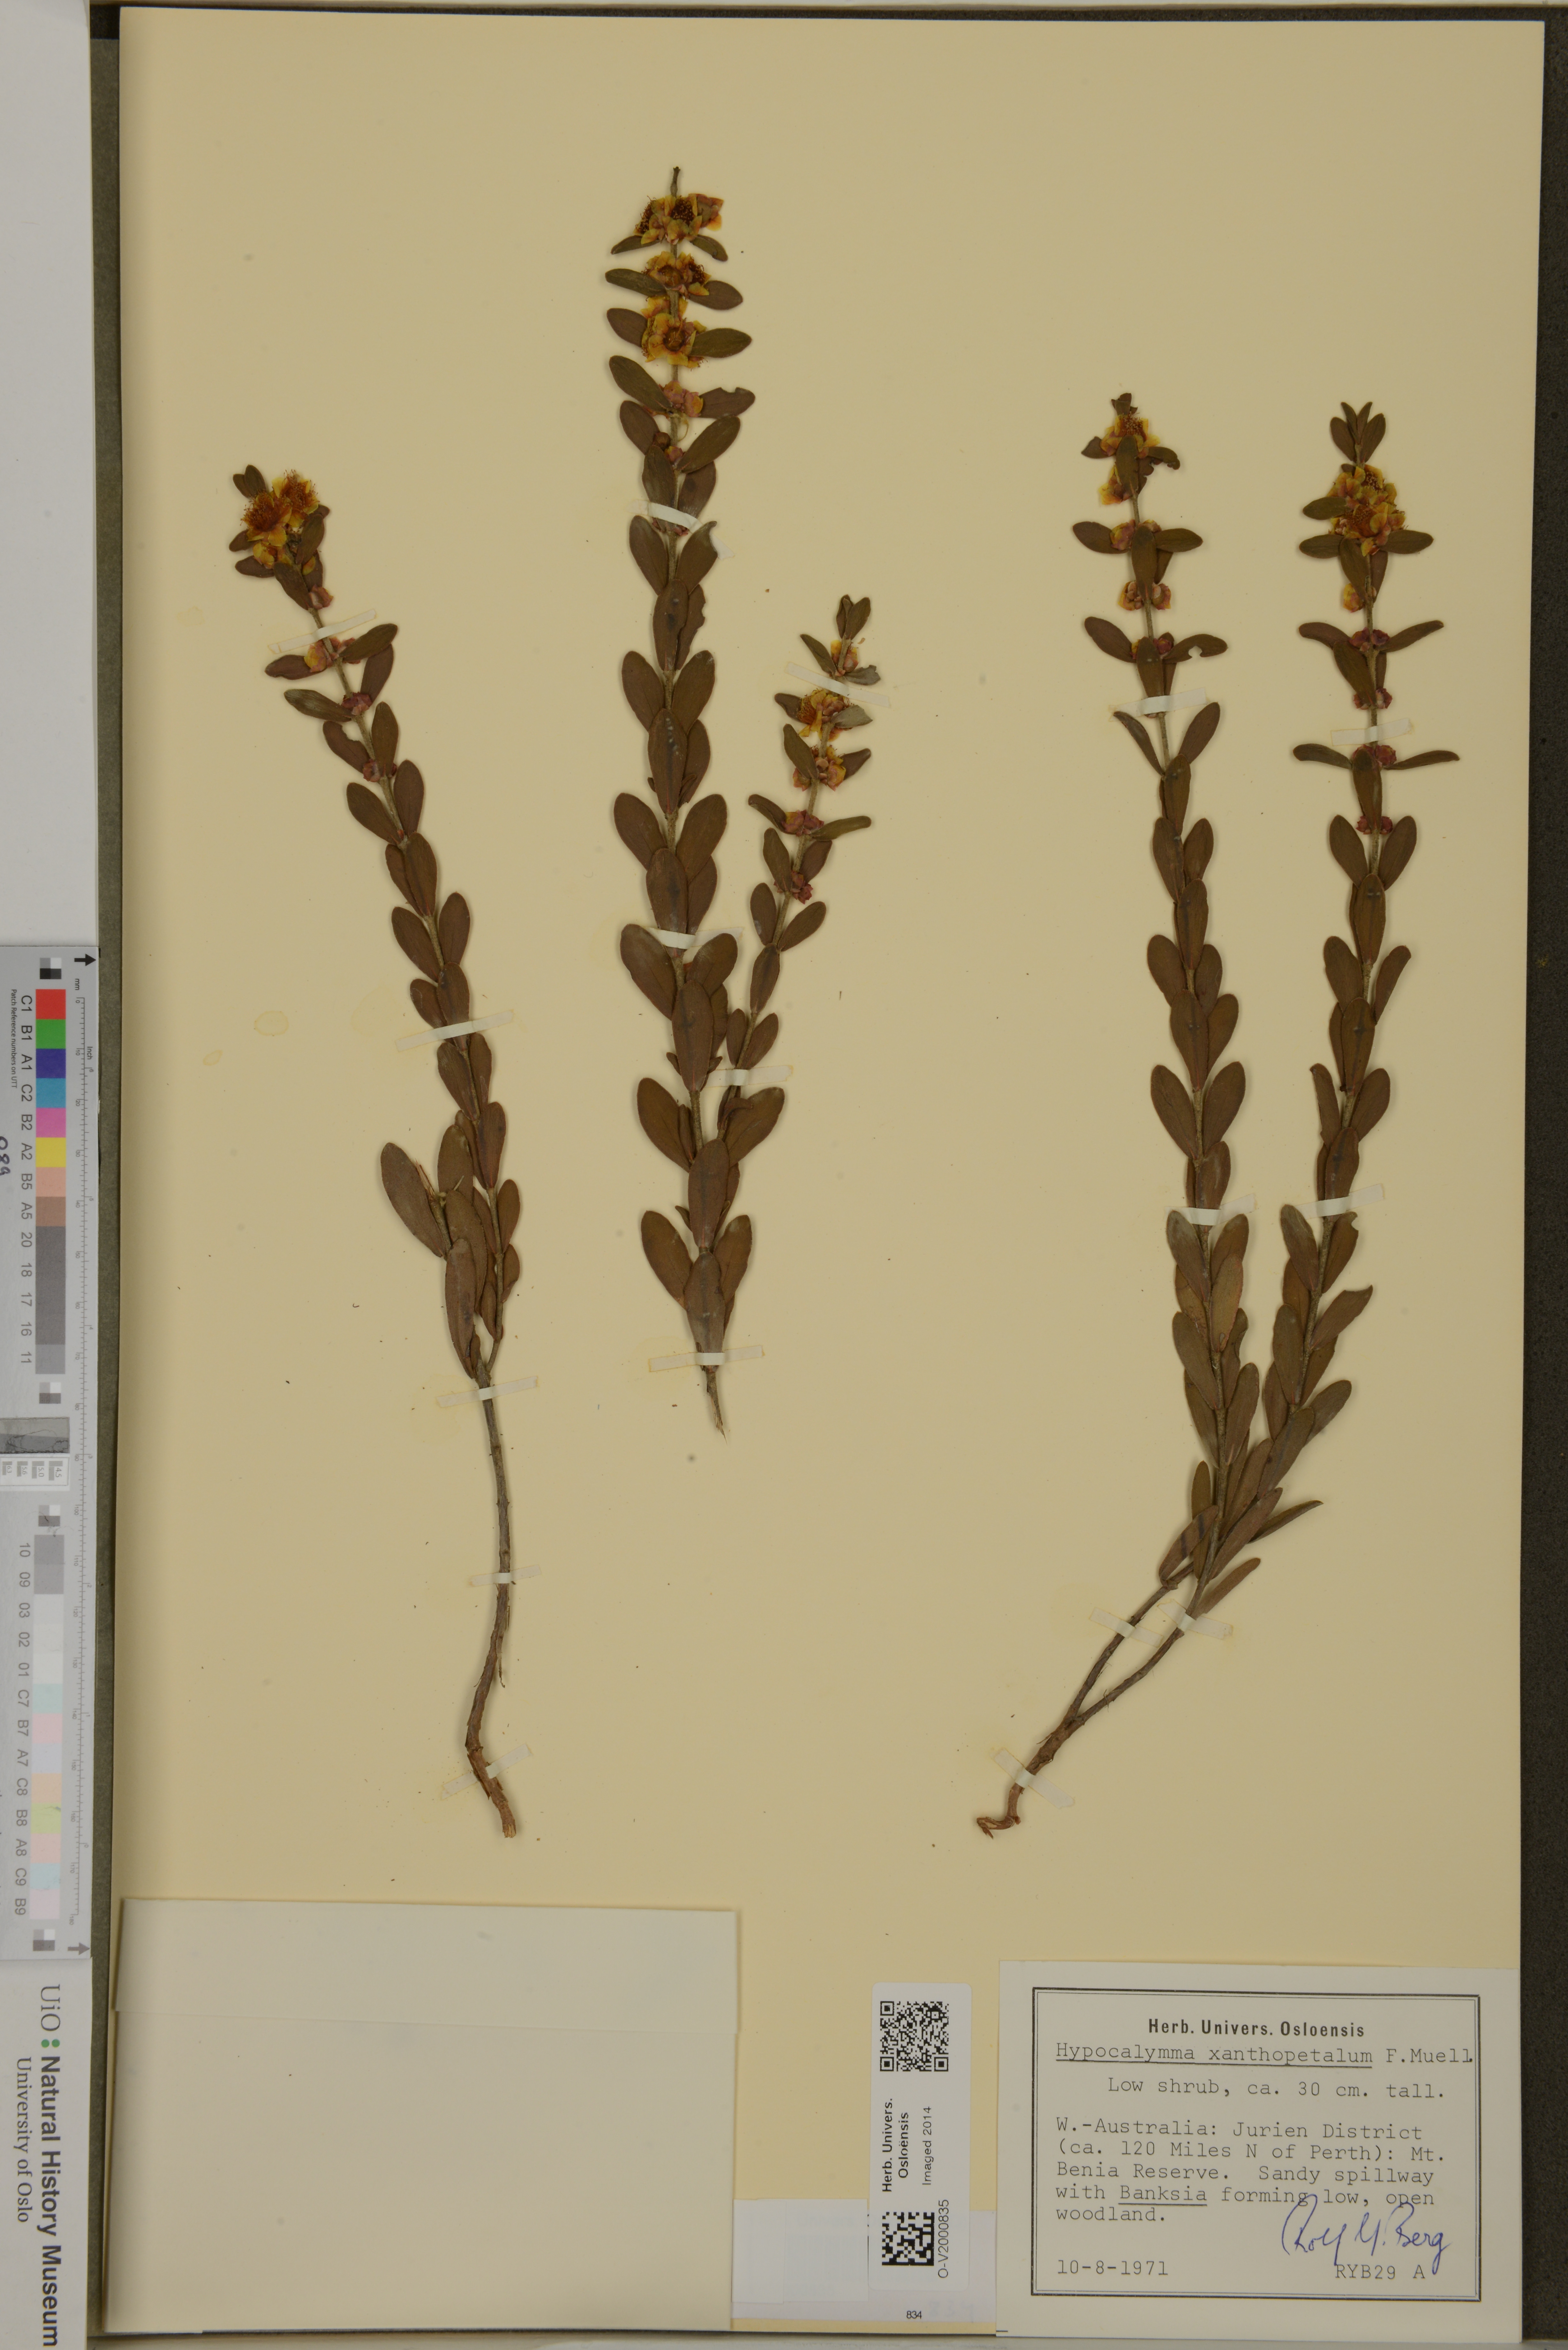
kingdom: Plantae
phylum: Tracheophyta
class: Magnoliopsida
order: Myrtales
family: Myrtaceae
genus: Hypocalymma
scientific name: Hypocalymma xanthopetalum
